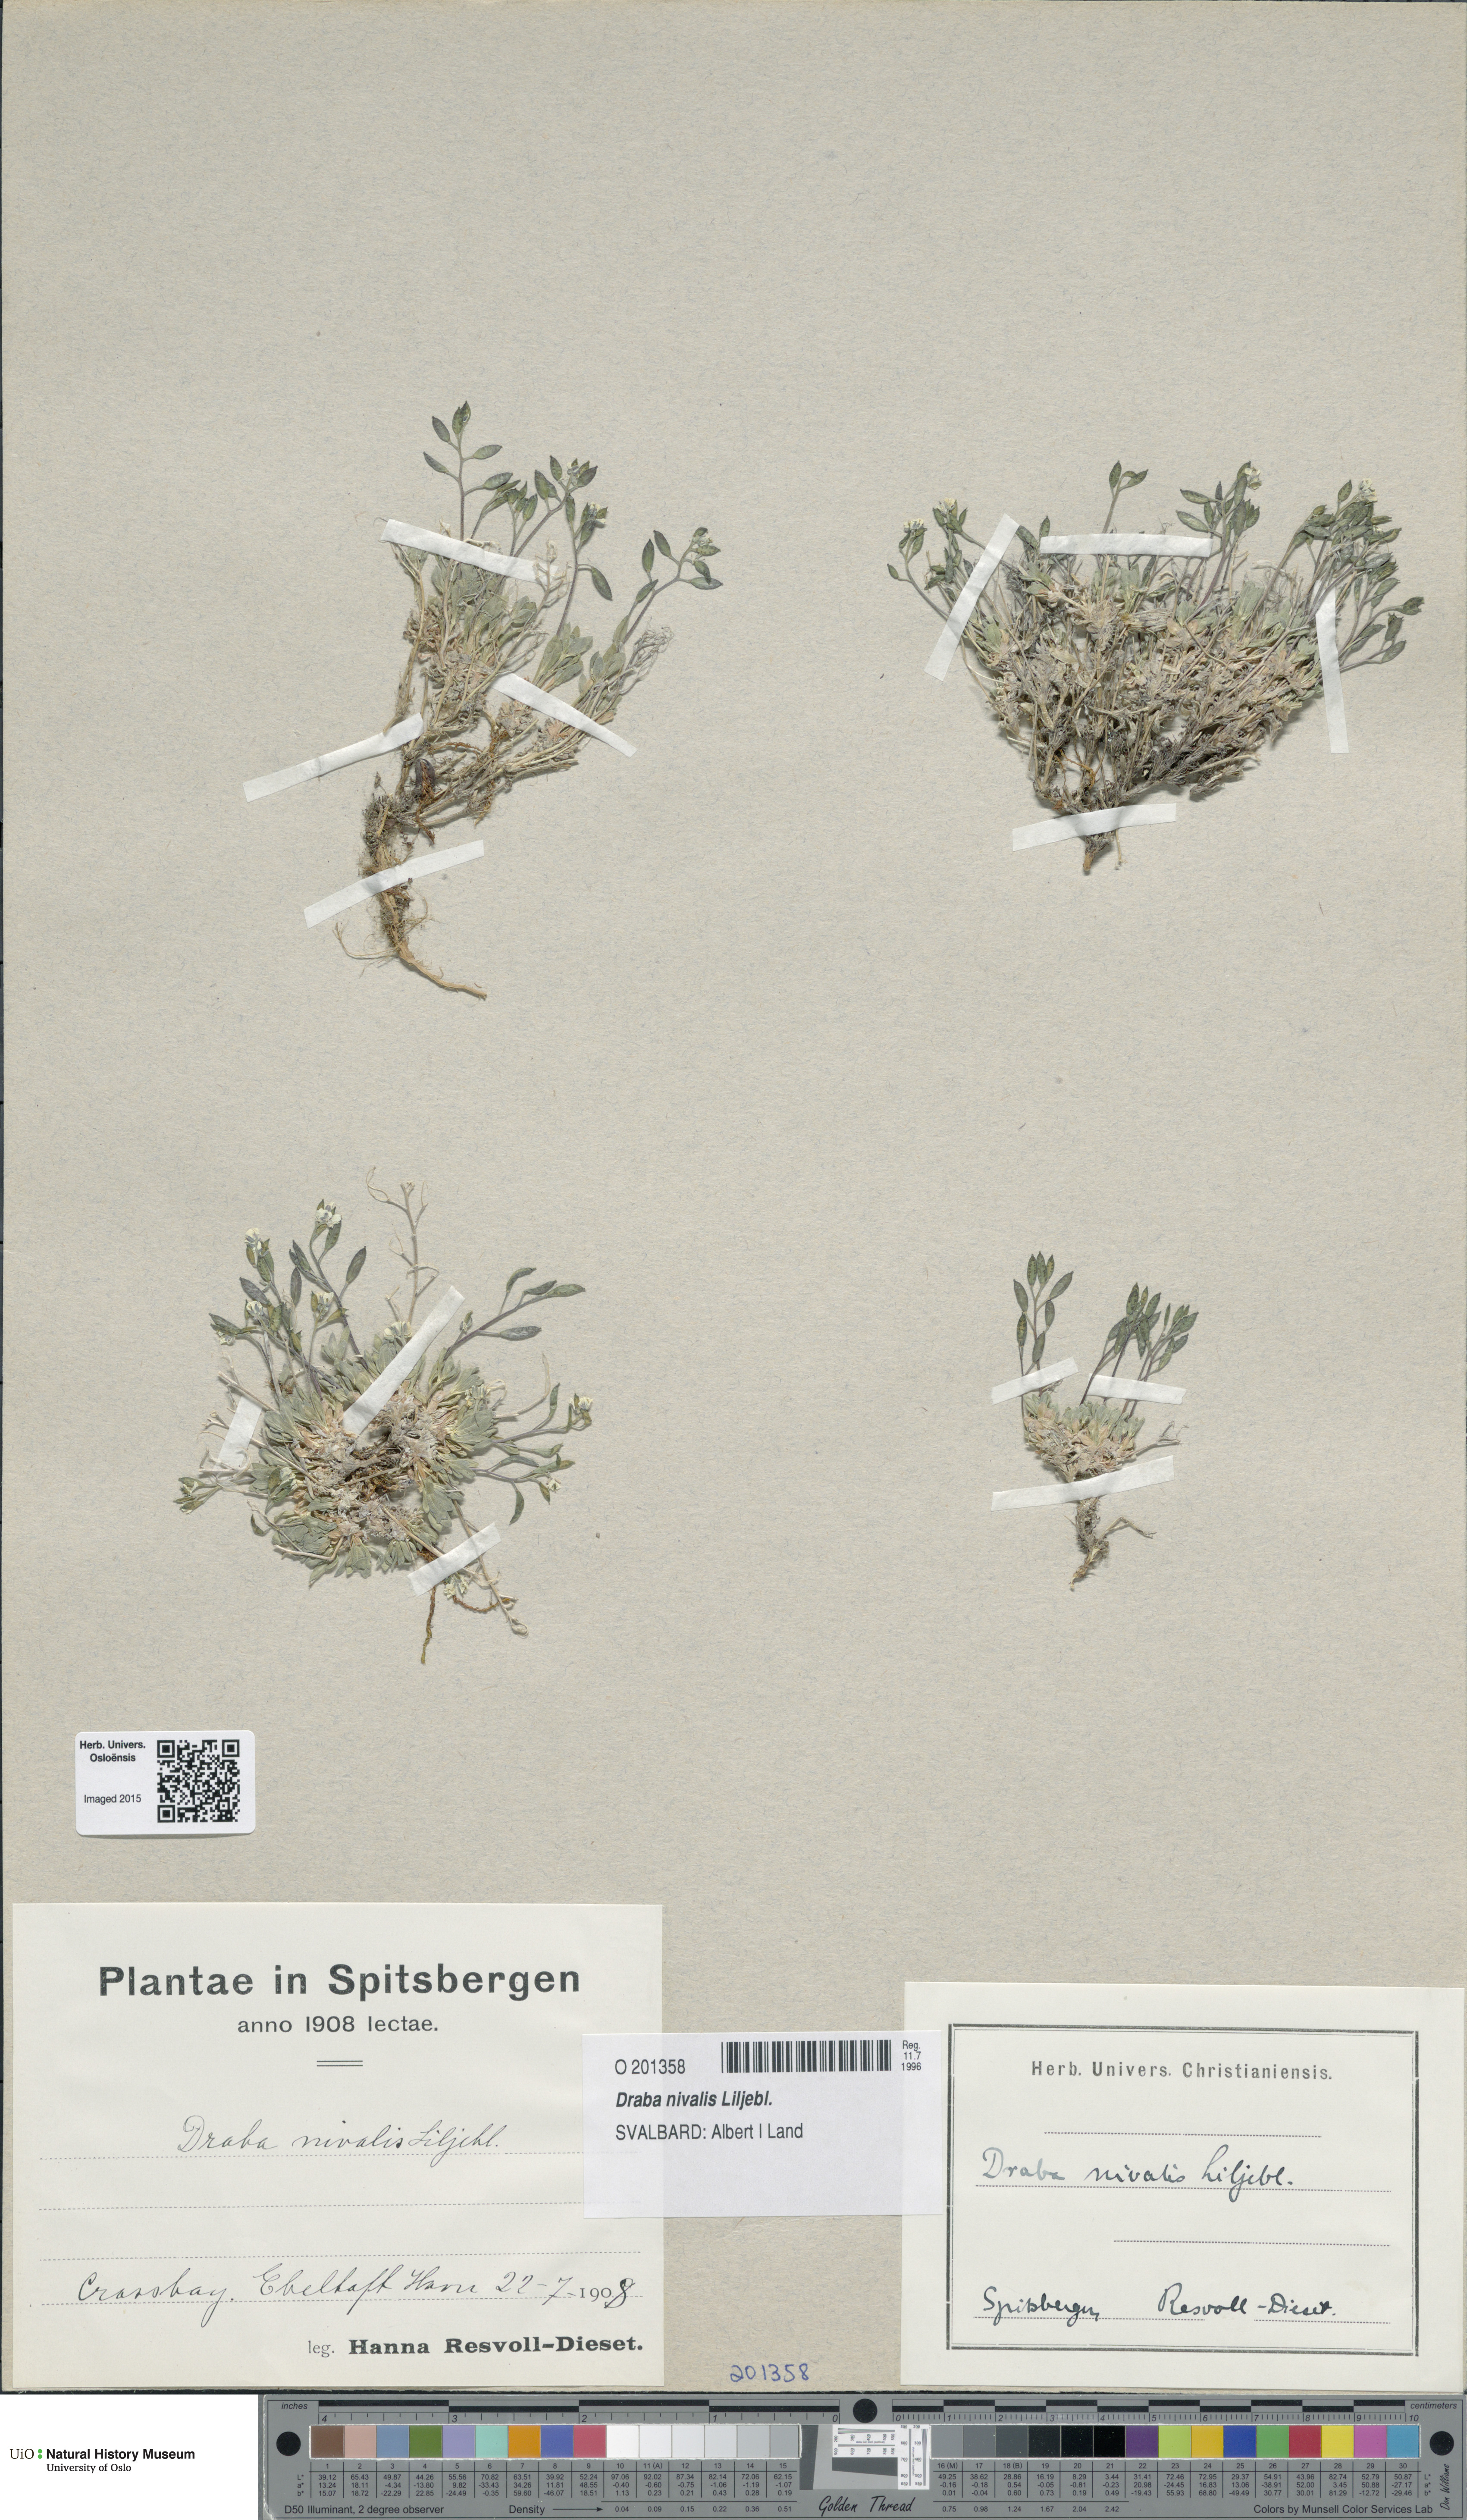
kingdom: Plantae
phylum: Tracheophyta
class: Magnoliopsida
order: Brassicales
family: Brassicaceae
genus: Draba
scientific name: Draba nivalis
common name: Snow draba
